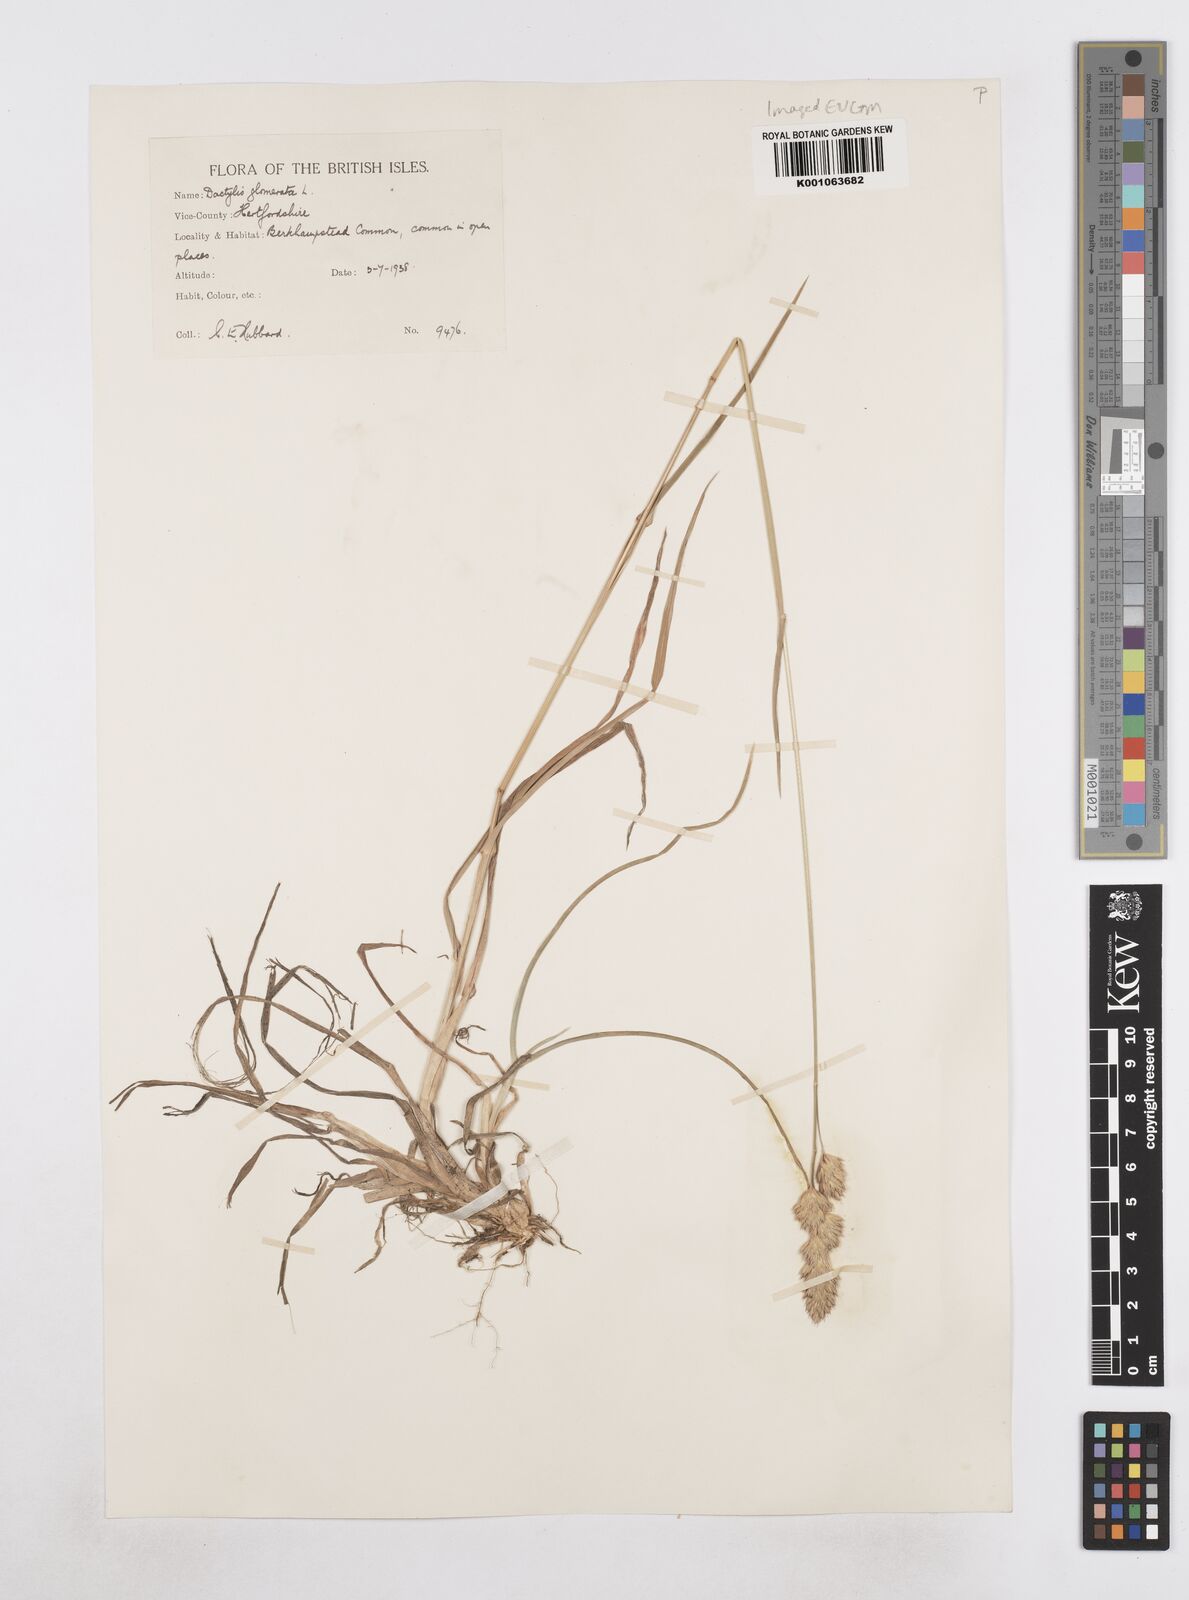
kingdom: Plantae
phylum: Tracheophyta
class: Liliopsida
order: Poales
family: Poaceae
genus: Dactylis
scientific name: Dactylis glomerata
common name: Orchardgrass
